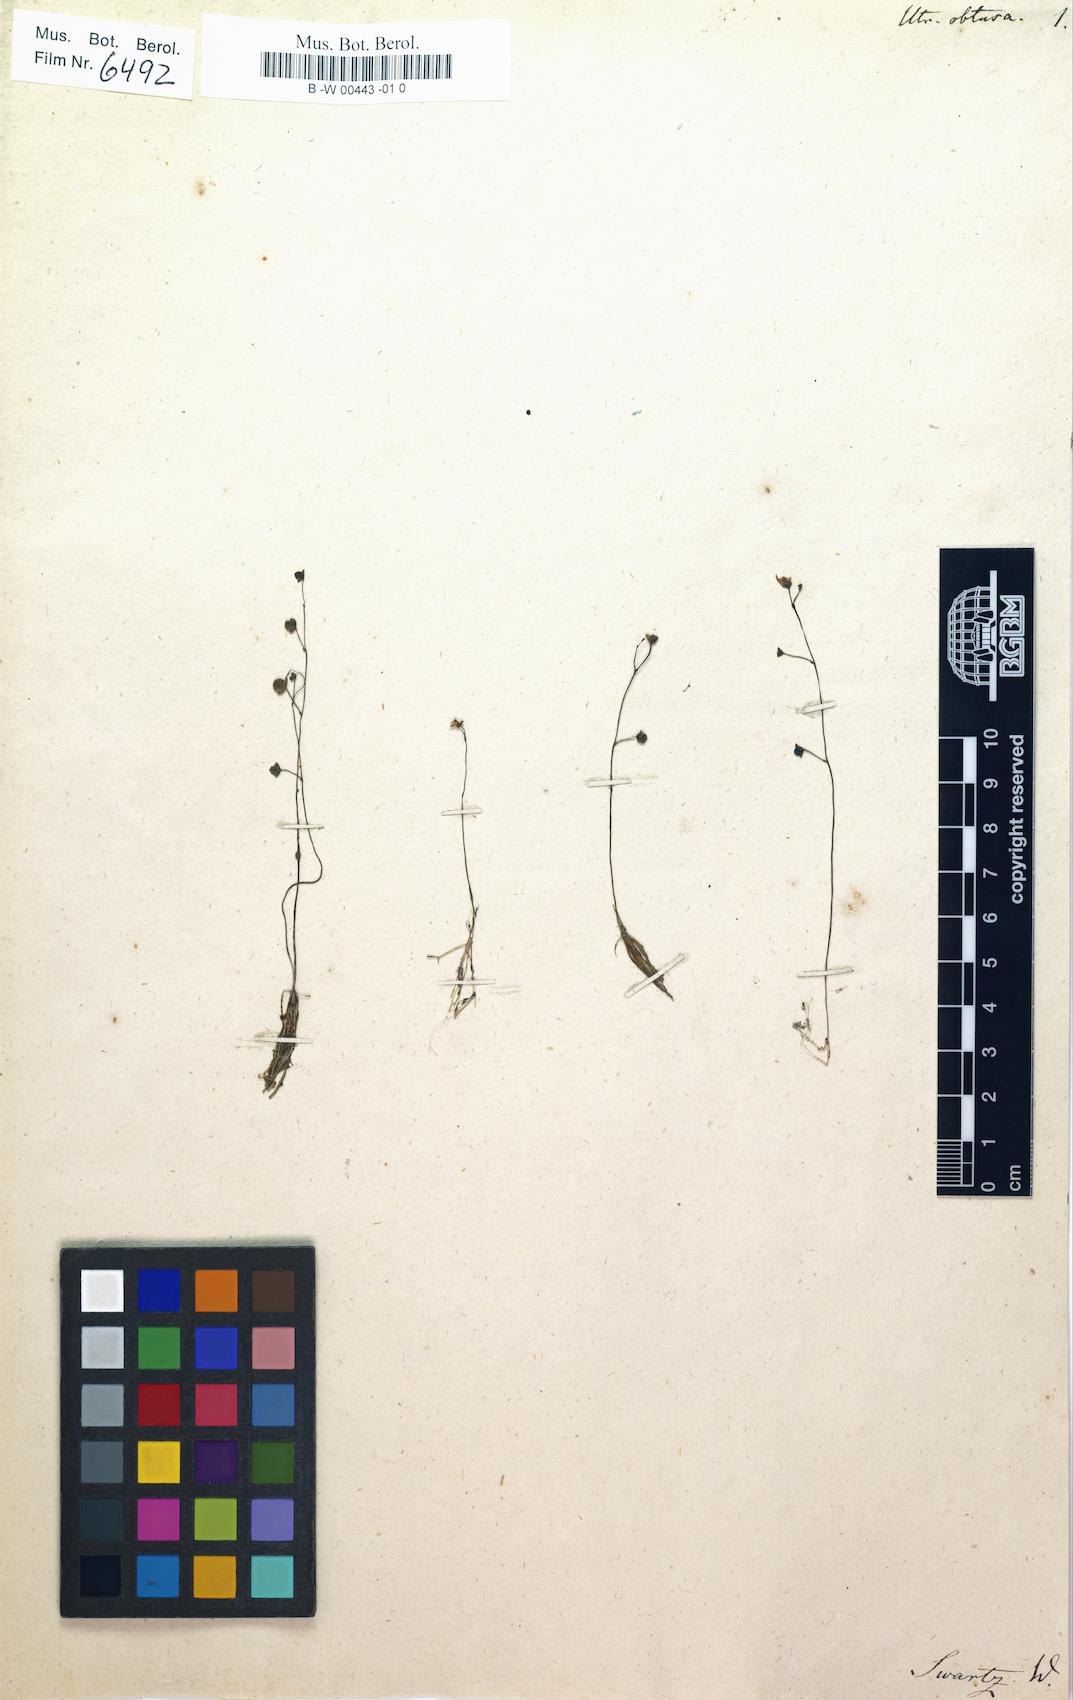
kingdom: Plantae
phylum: Tracheophyta
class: Magnoliopsida
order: Lamiales
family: Lentibulariaceae
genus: Utricularia
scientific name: Utricularia gibba
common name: Humped bladderwort
